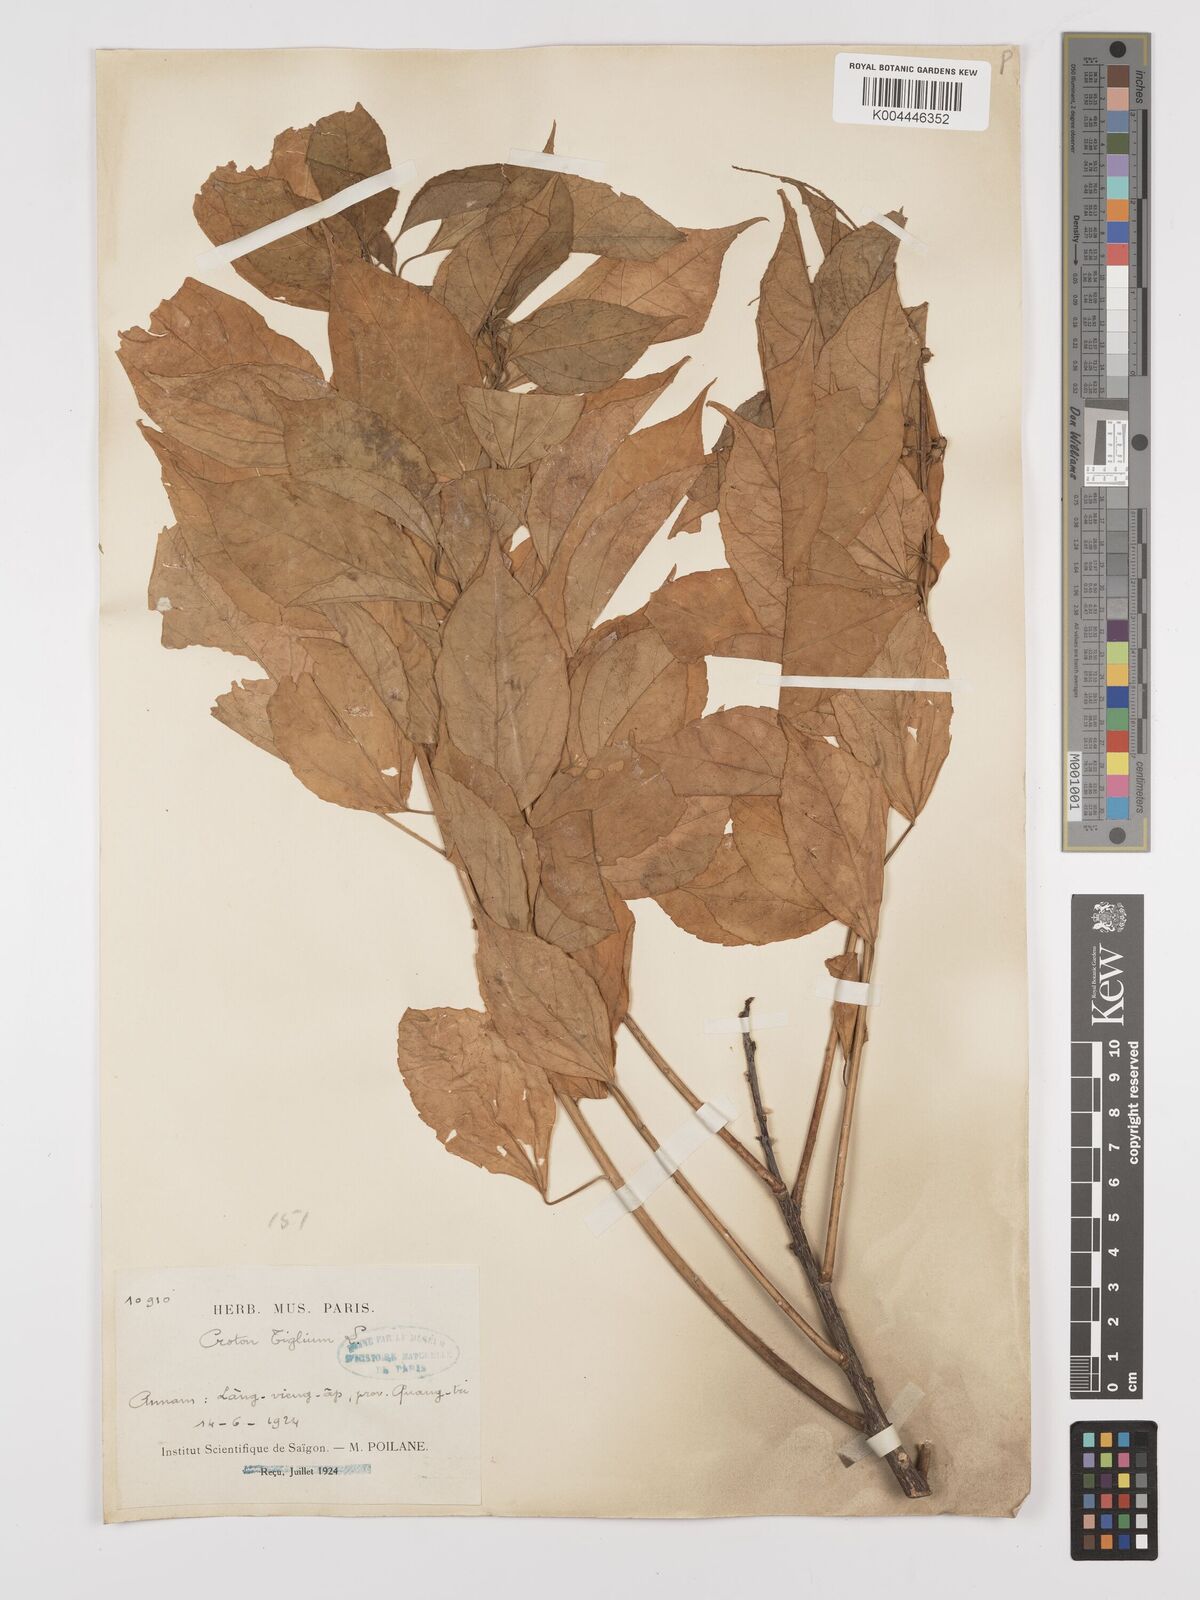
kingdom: Plantae
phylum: Tracheophyta
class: Magnoliopsida
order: Malpighiales
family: Euphorbiaceae
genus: Croton
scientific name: Croton tiglium
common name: Purging croton
